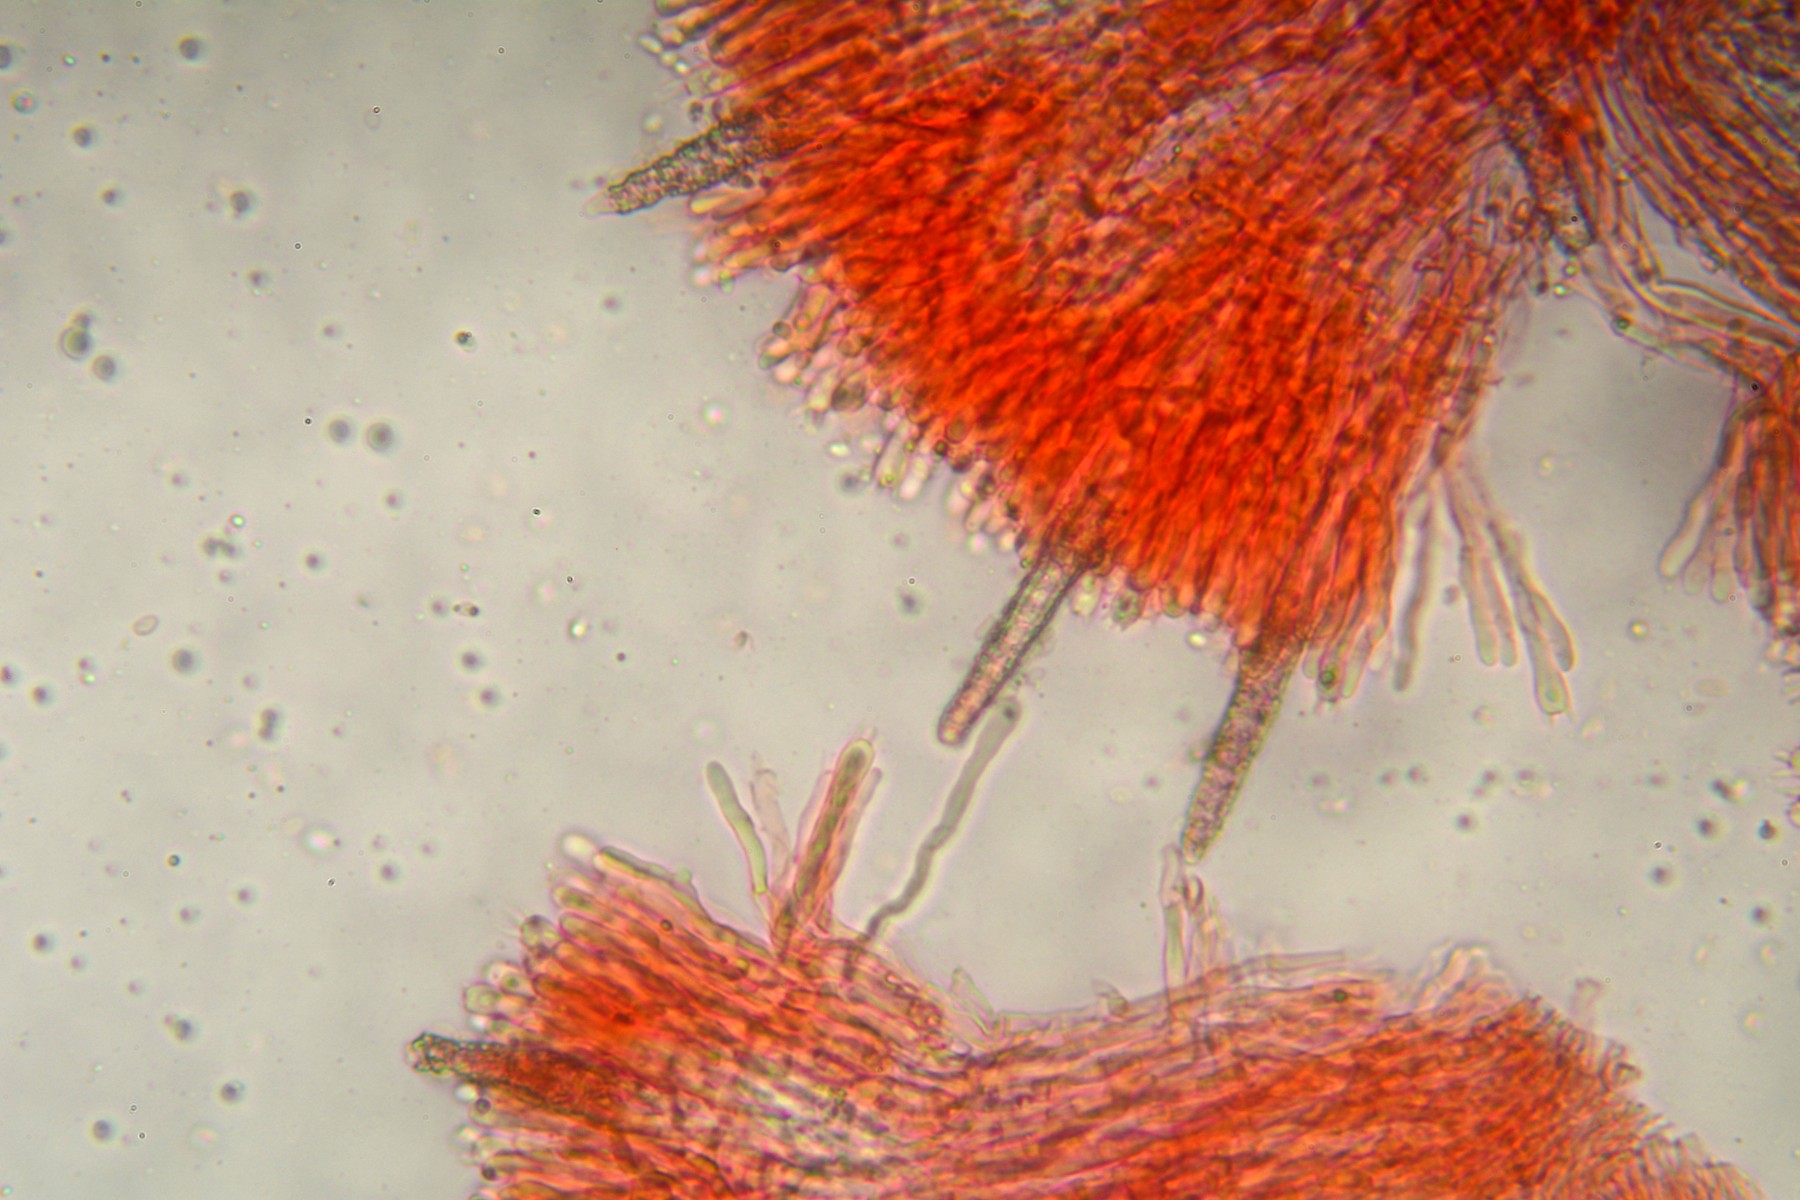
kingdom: Fungi
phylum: Basidiomycota
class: Agaricomycetes
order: Polyporales
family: Phanerochaetaceae
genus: Phanerochaete
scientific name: Phanerochaete velutina
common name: dunet randtråd
